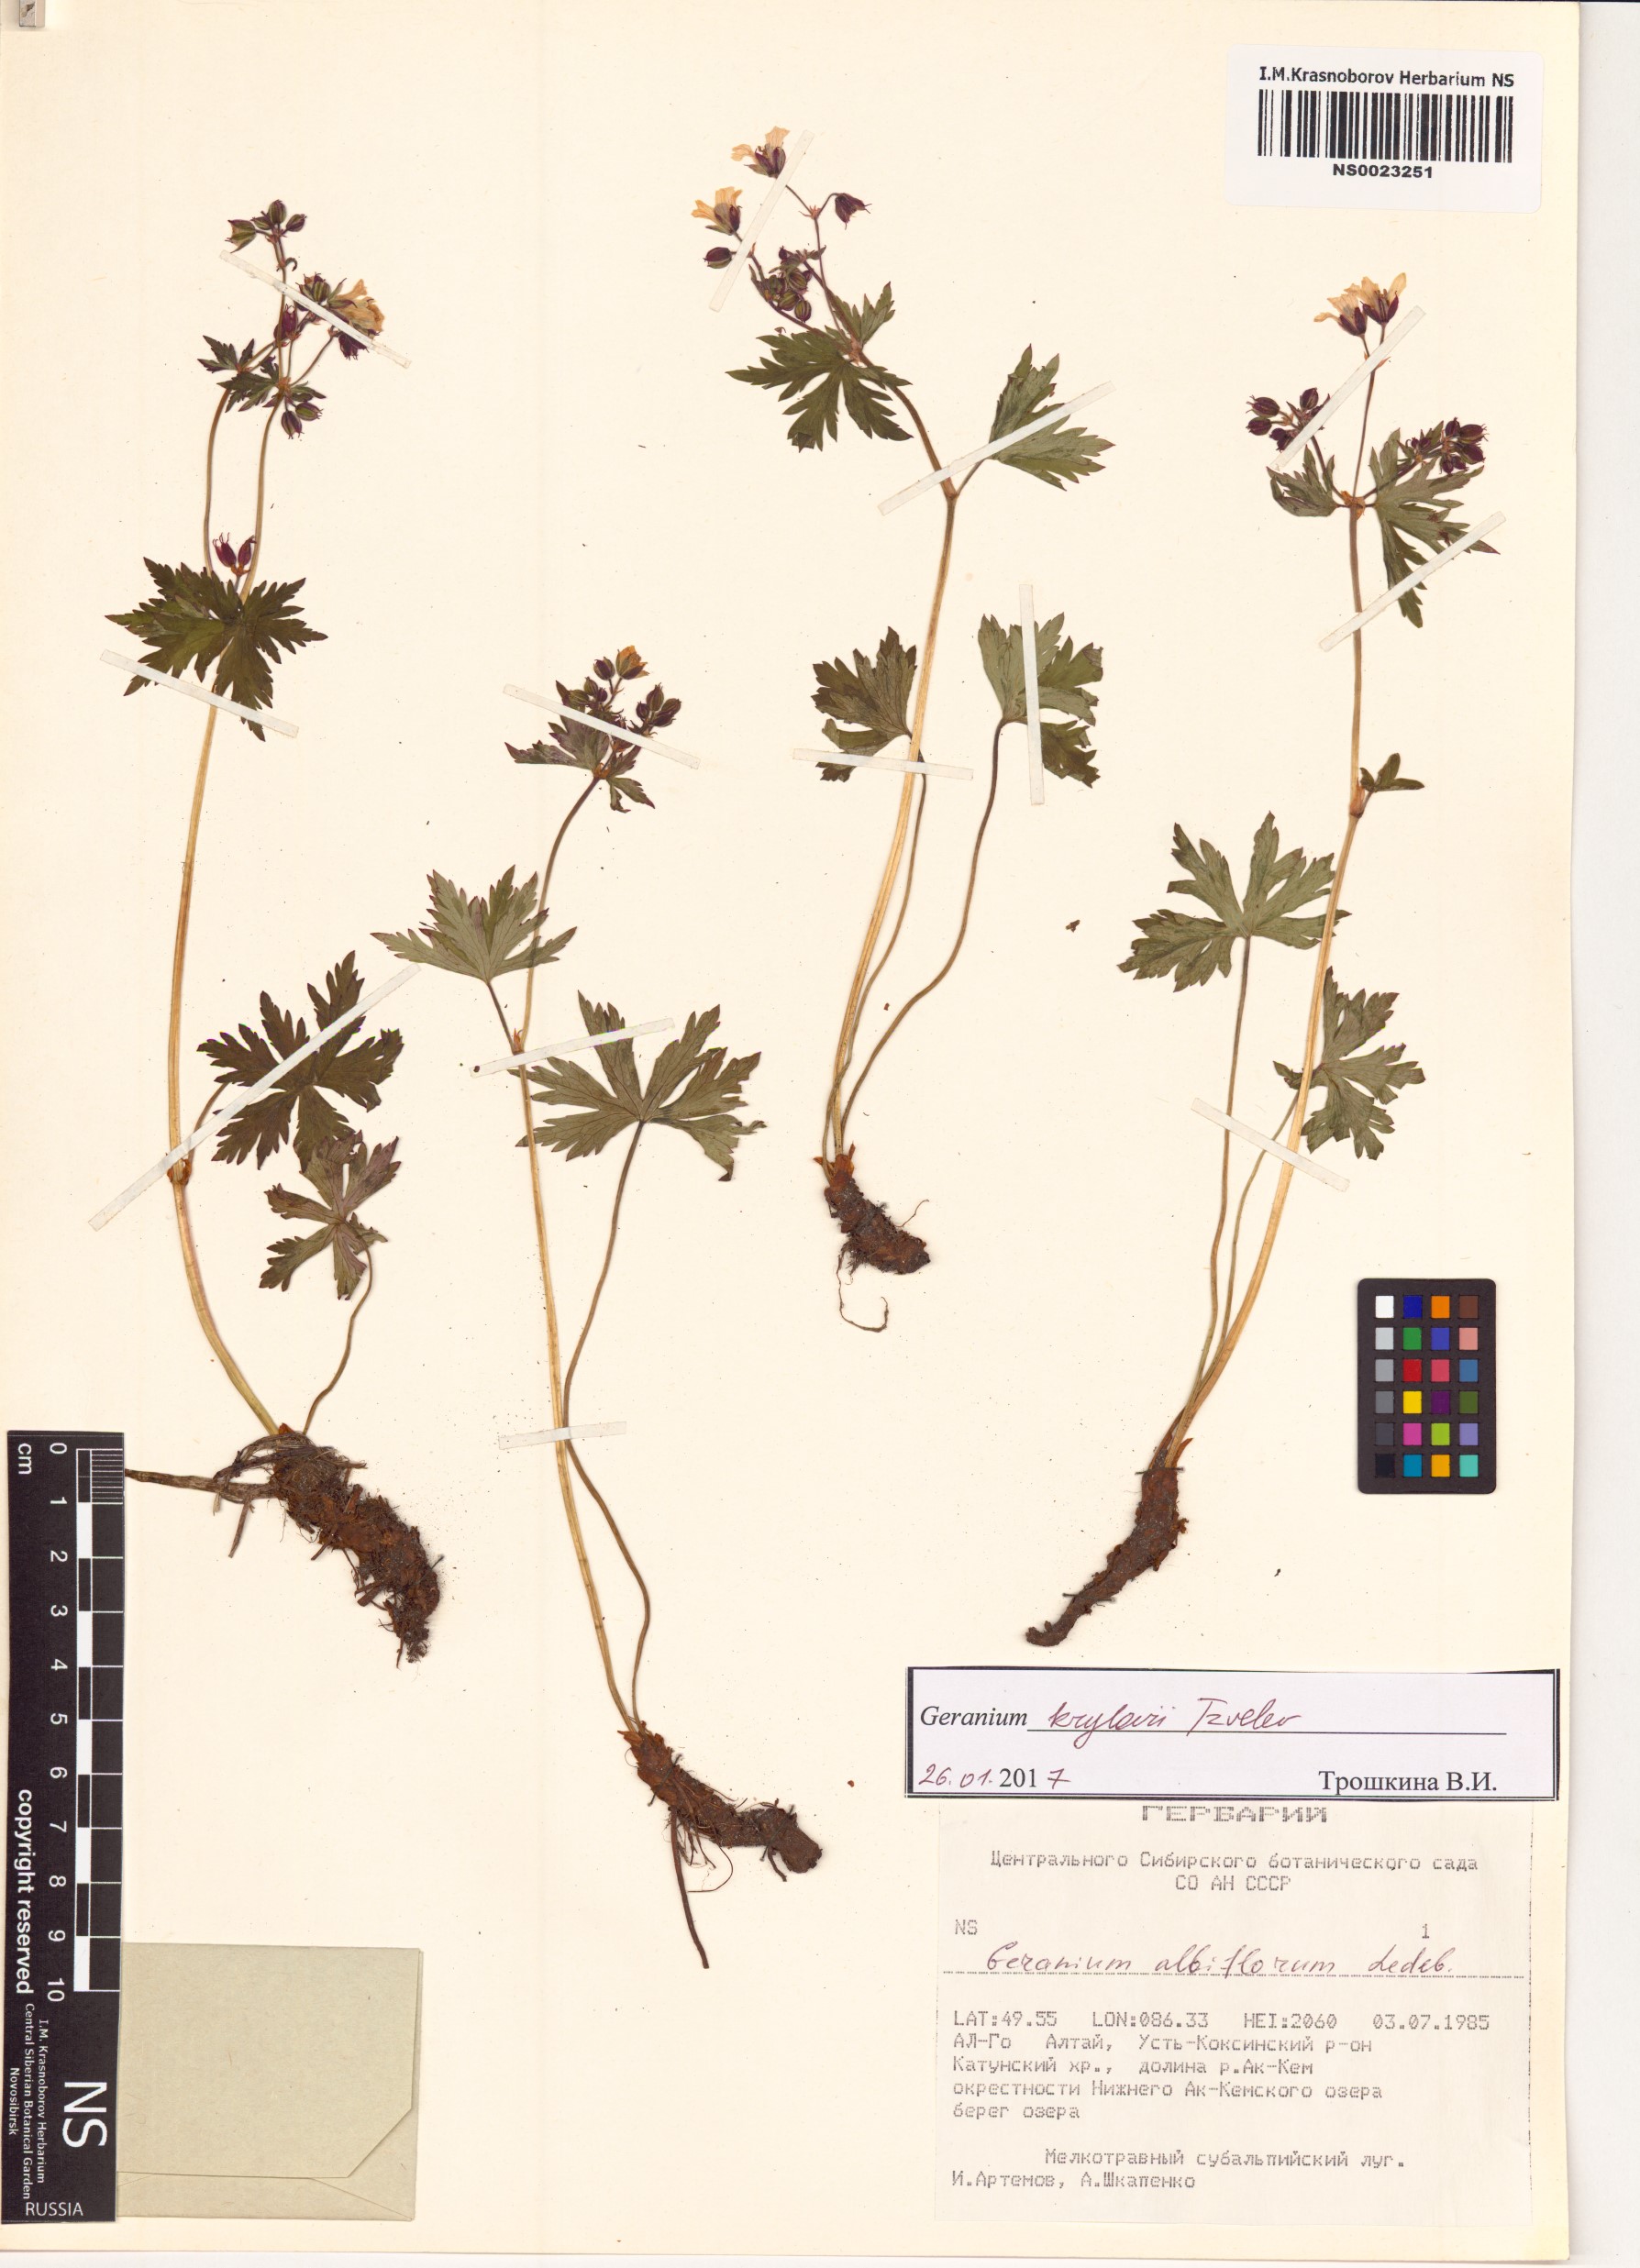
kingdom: Plantae
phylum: Tracheophyta
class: Magnoliopsida
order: Geraniales
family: Geraniaceae
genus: Geranium
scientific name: Geranium sylvaticum
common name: Wood crane's-bill
